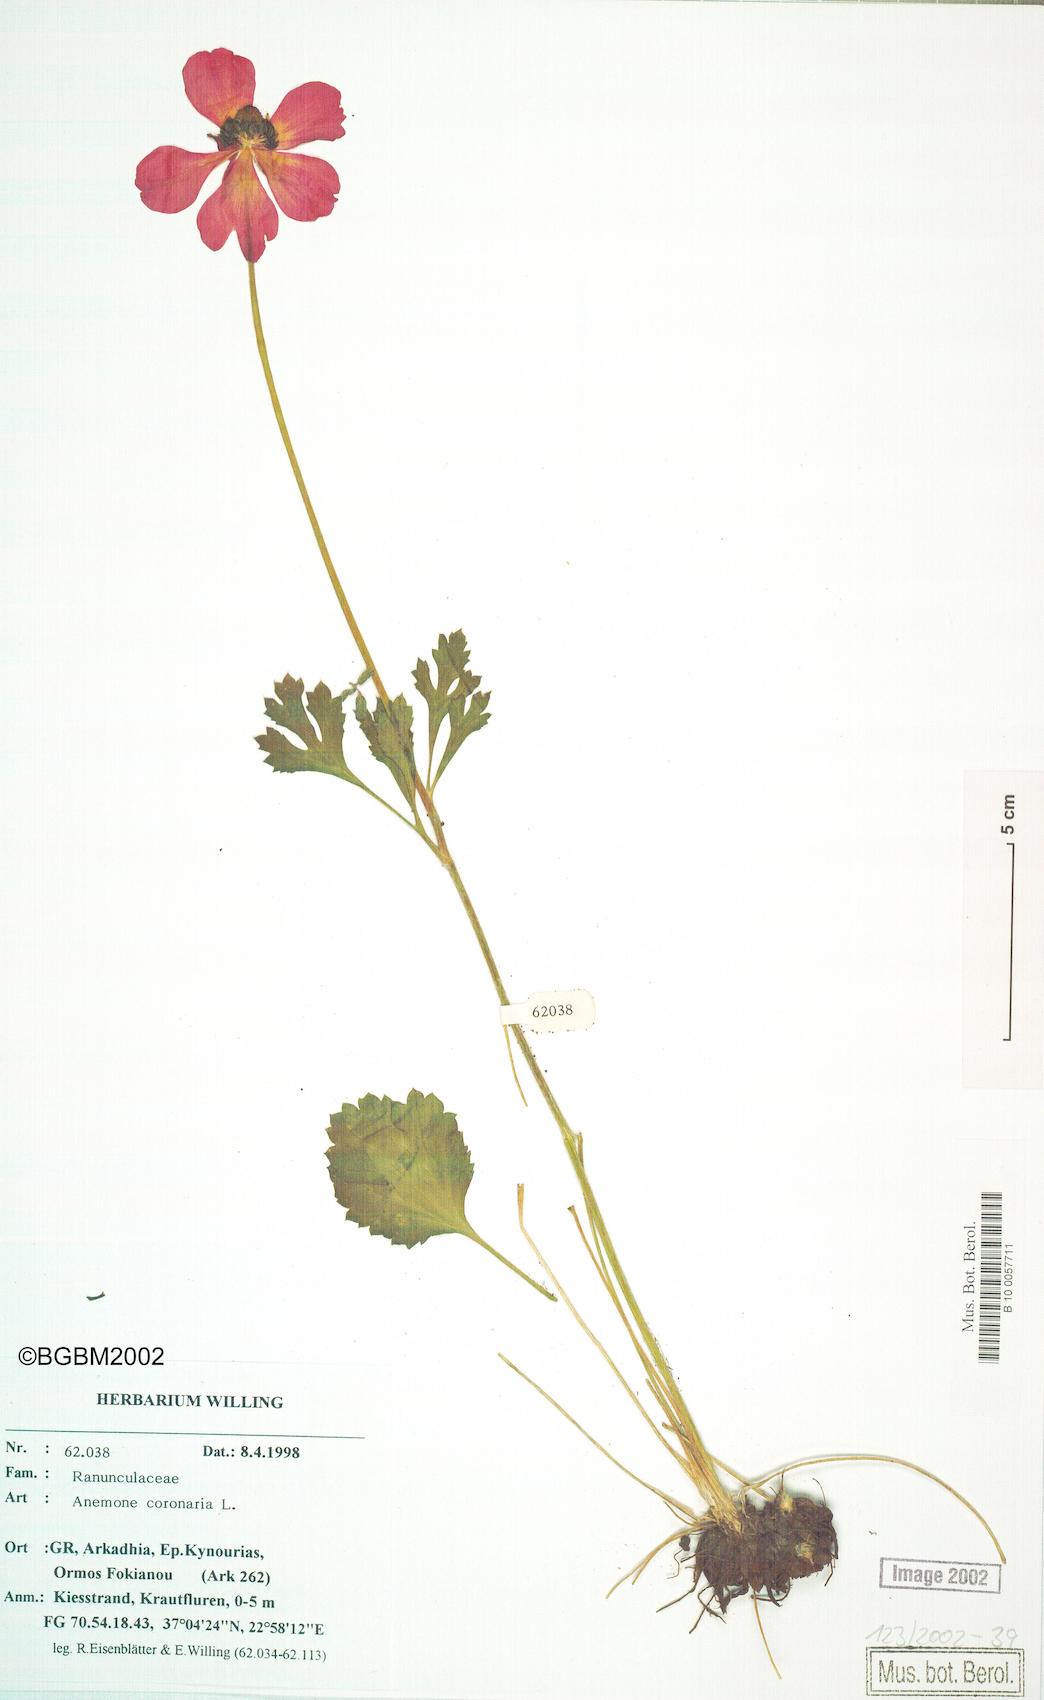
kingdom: Plantae
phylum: Tracheophyta
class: Magnoliopsida
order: Ranunculales
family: Ranunculaceae
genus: Anemone
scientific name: Anemone coronaria
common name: Poppy anemone
